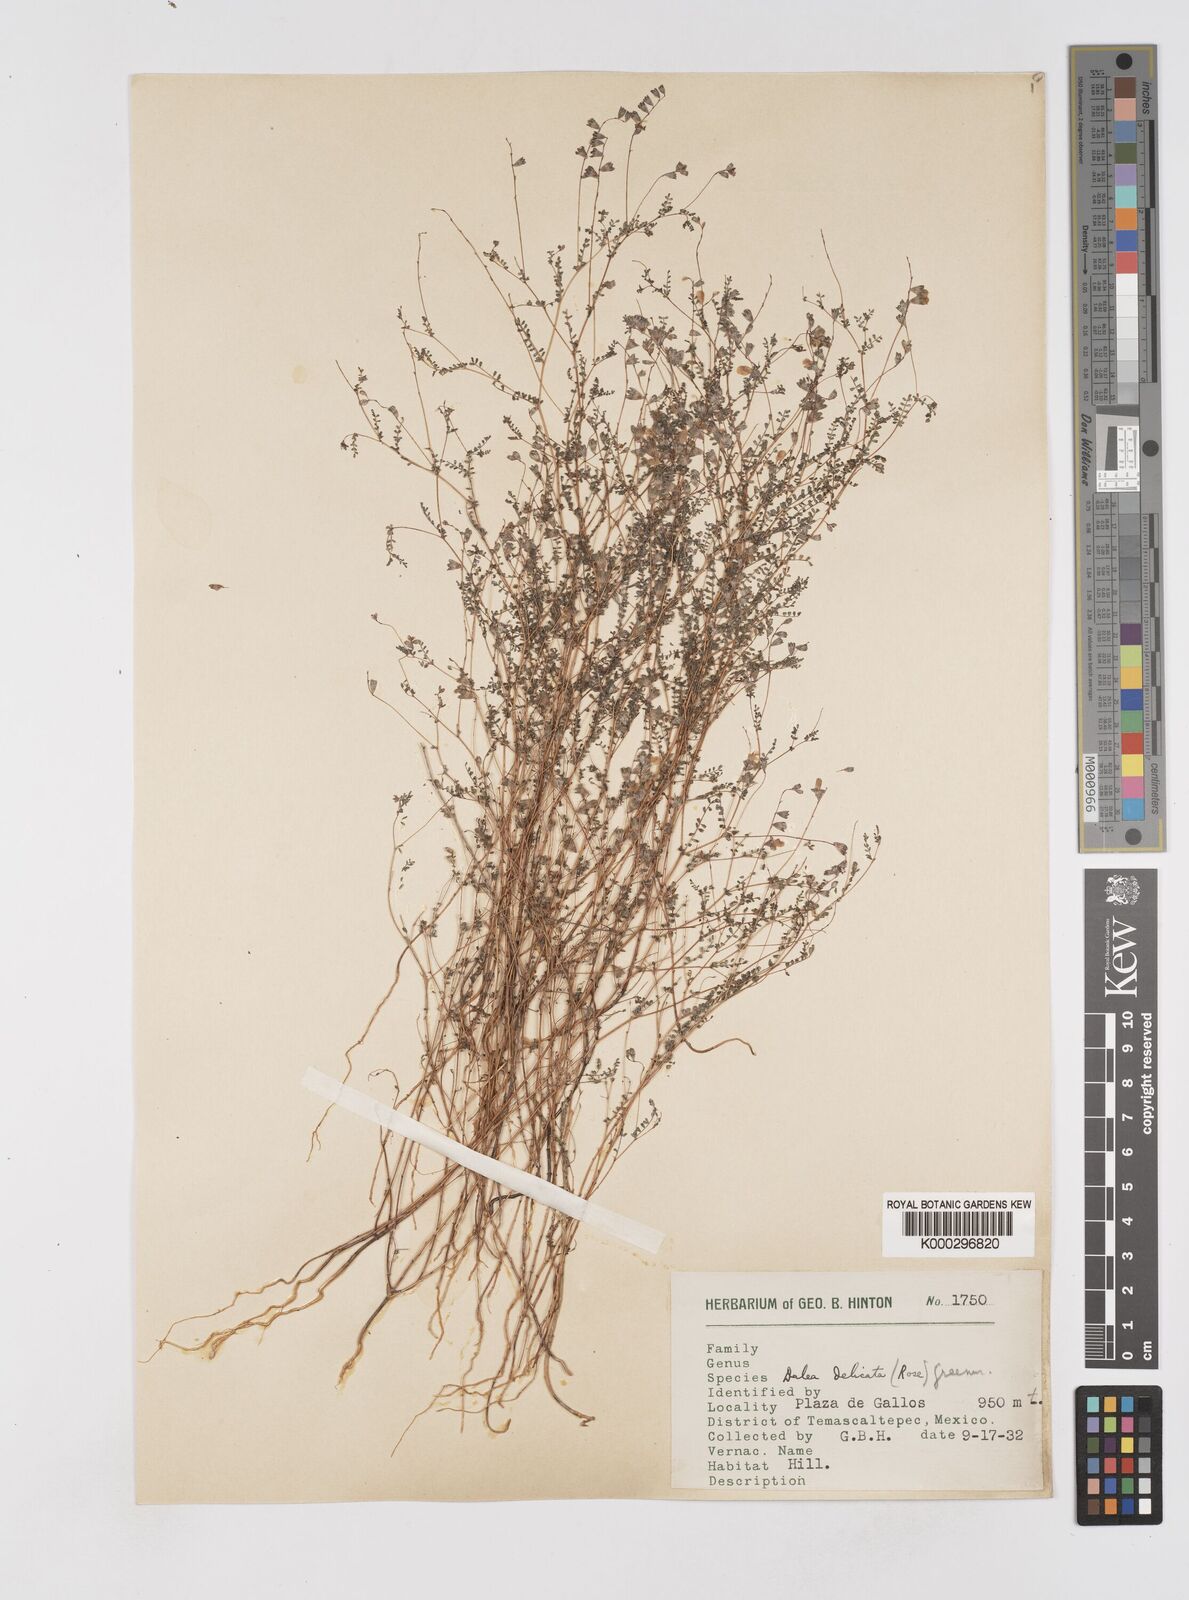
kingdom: Plantae
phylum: Tracheophyta
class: Magnoliopsida
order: Fabales
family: Fabaceae
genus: Marina
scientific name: Marina gracilis
